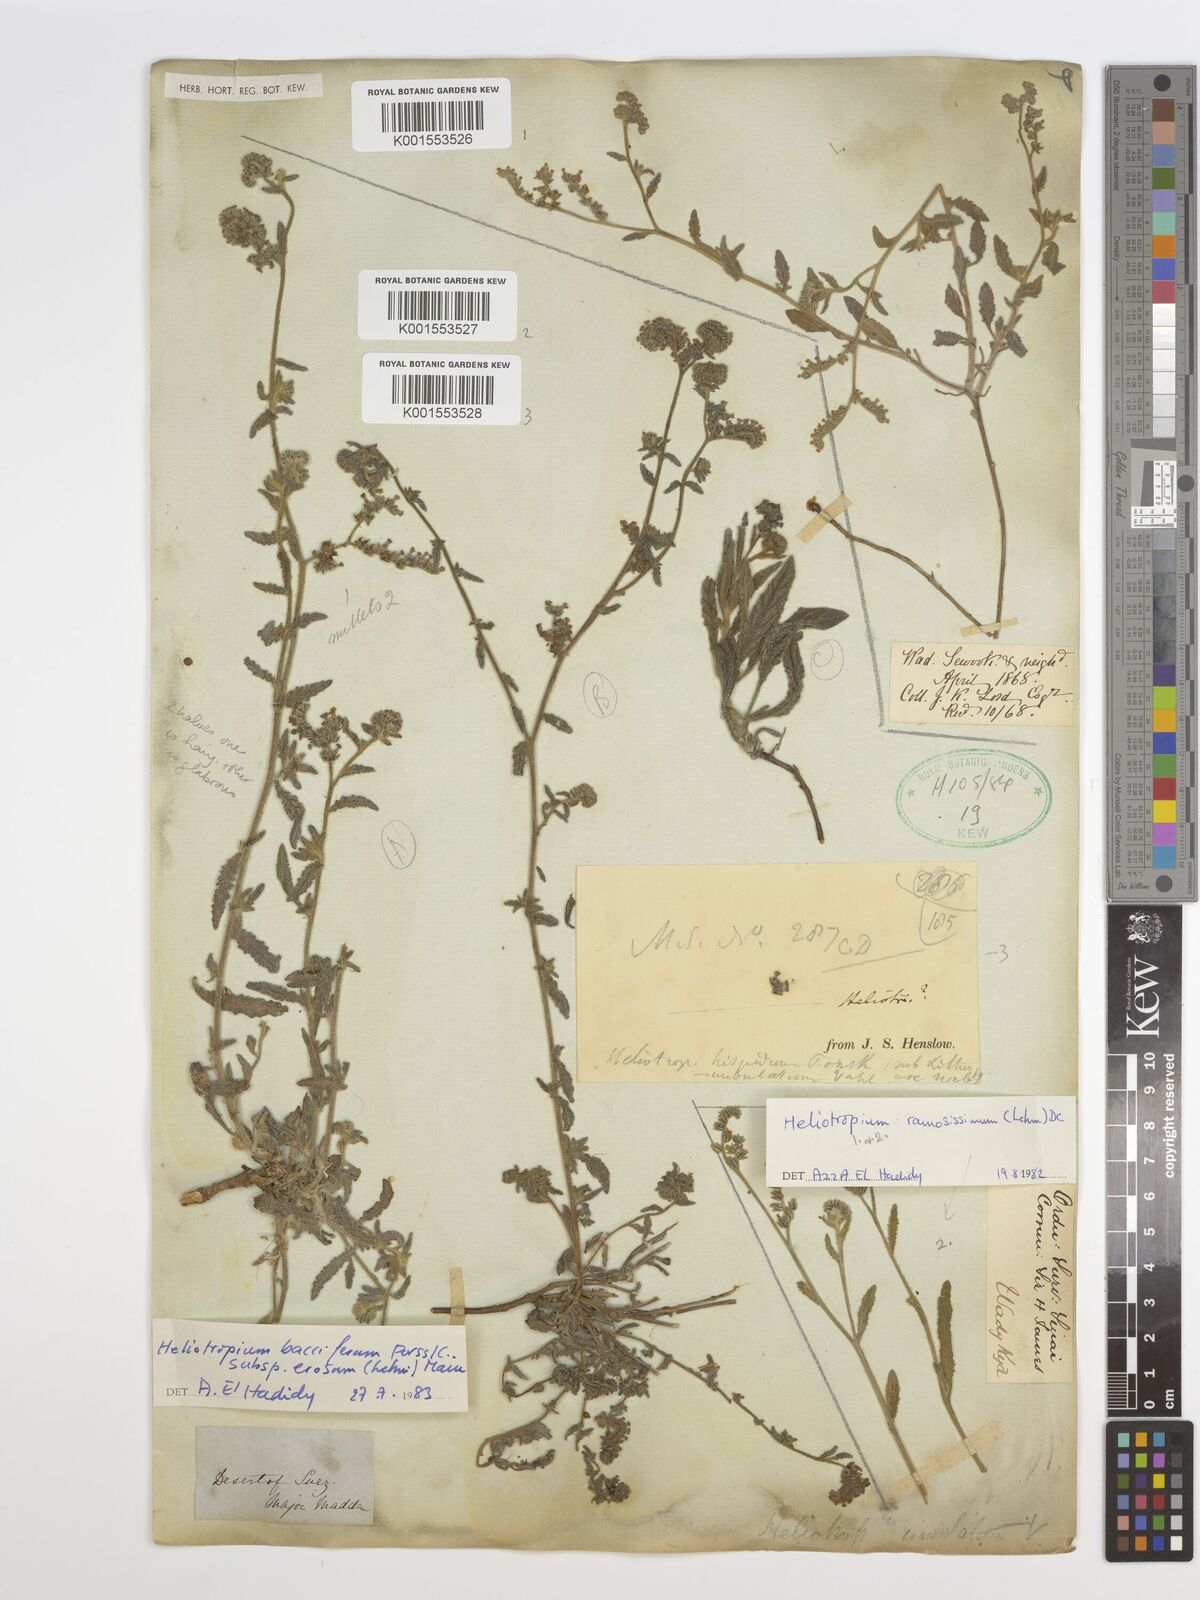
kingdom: Plantae
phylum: Tracheophyta
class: Magnoliopsida
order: Boraginales
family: Heliotropiaceae
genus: Heliotropium
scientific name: Heliotropium
